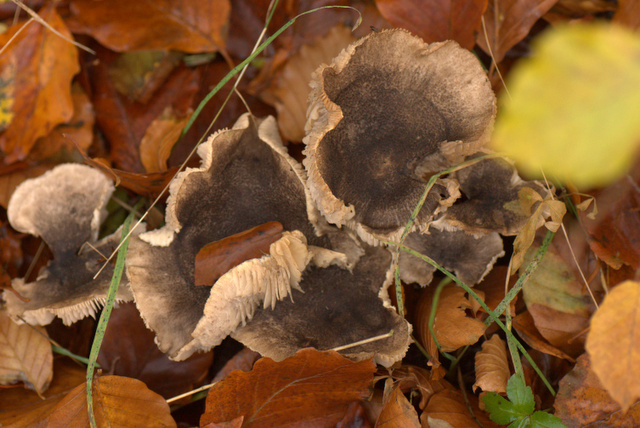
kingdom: Fungi
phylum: Basidiomycota
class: Agaricomycetes
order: Agaricales
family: Tricholomataceae
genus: Tricholoma
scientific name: Tricholoma orirubens
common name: rødbladet ridderhat
